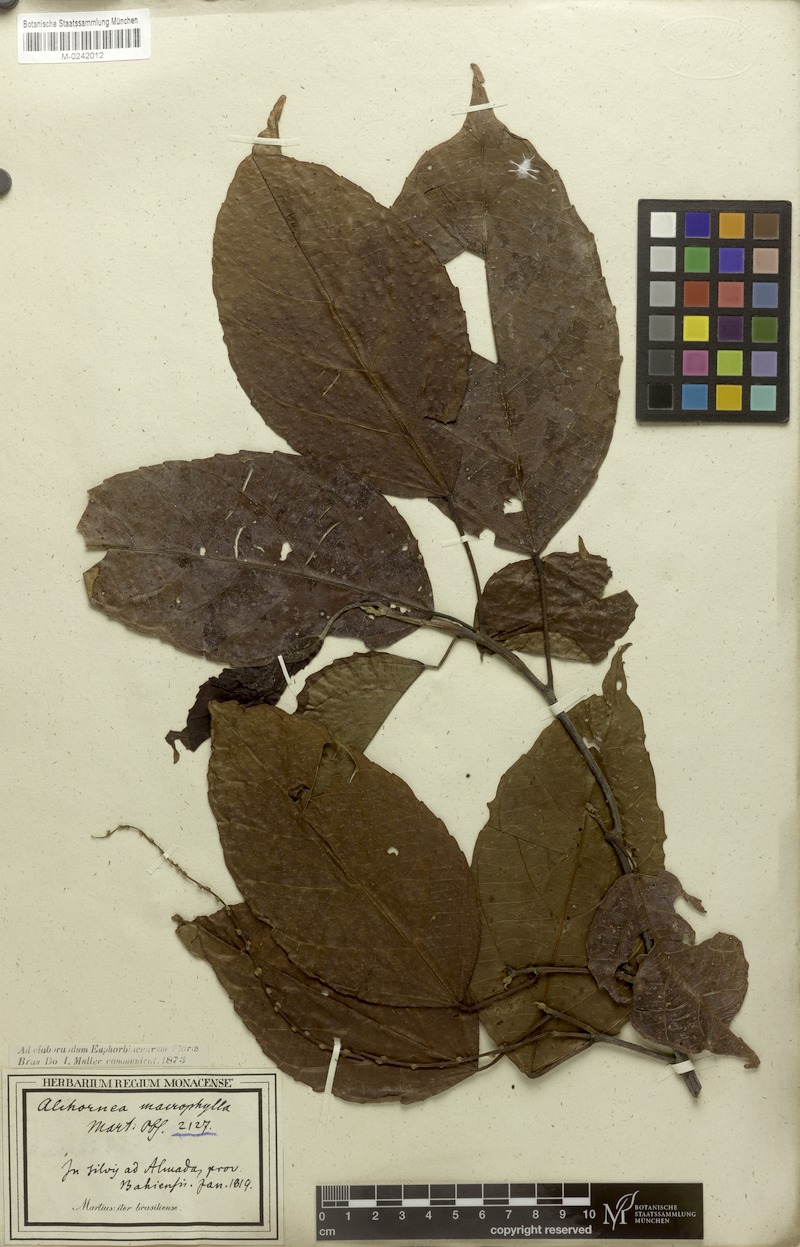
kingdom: Plantae
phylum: Tracheophyta
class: Magnoliopsida
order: Malpighiales
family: Euphorbiaceae
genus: Aparisthmium
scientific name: Aparisthmium cordatum
